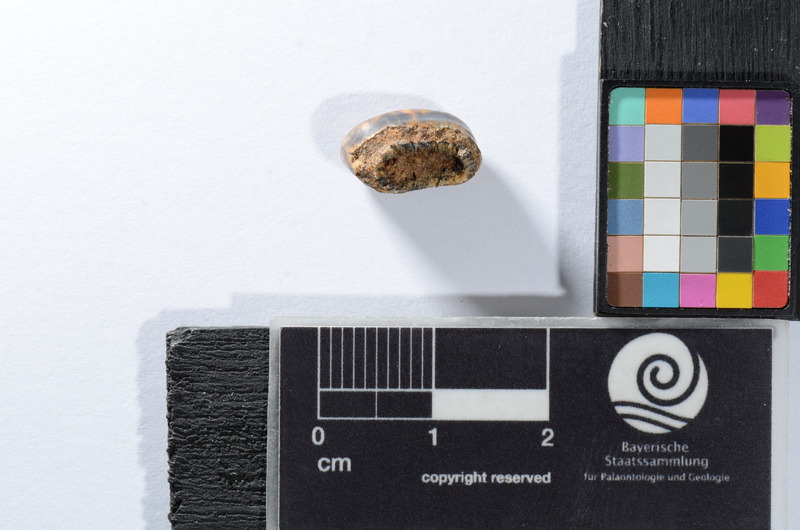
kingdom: Animalia
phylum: Chordata
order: Perciformes
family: Sparidae
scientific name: Sparidae
